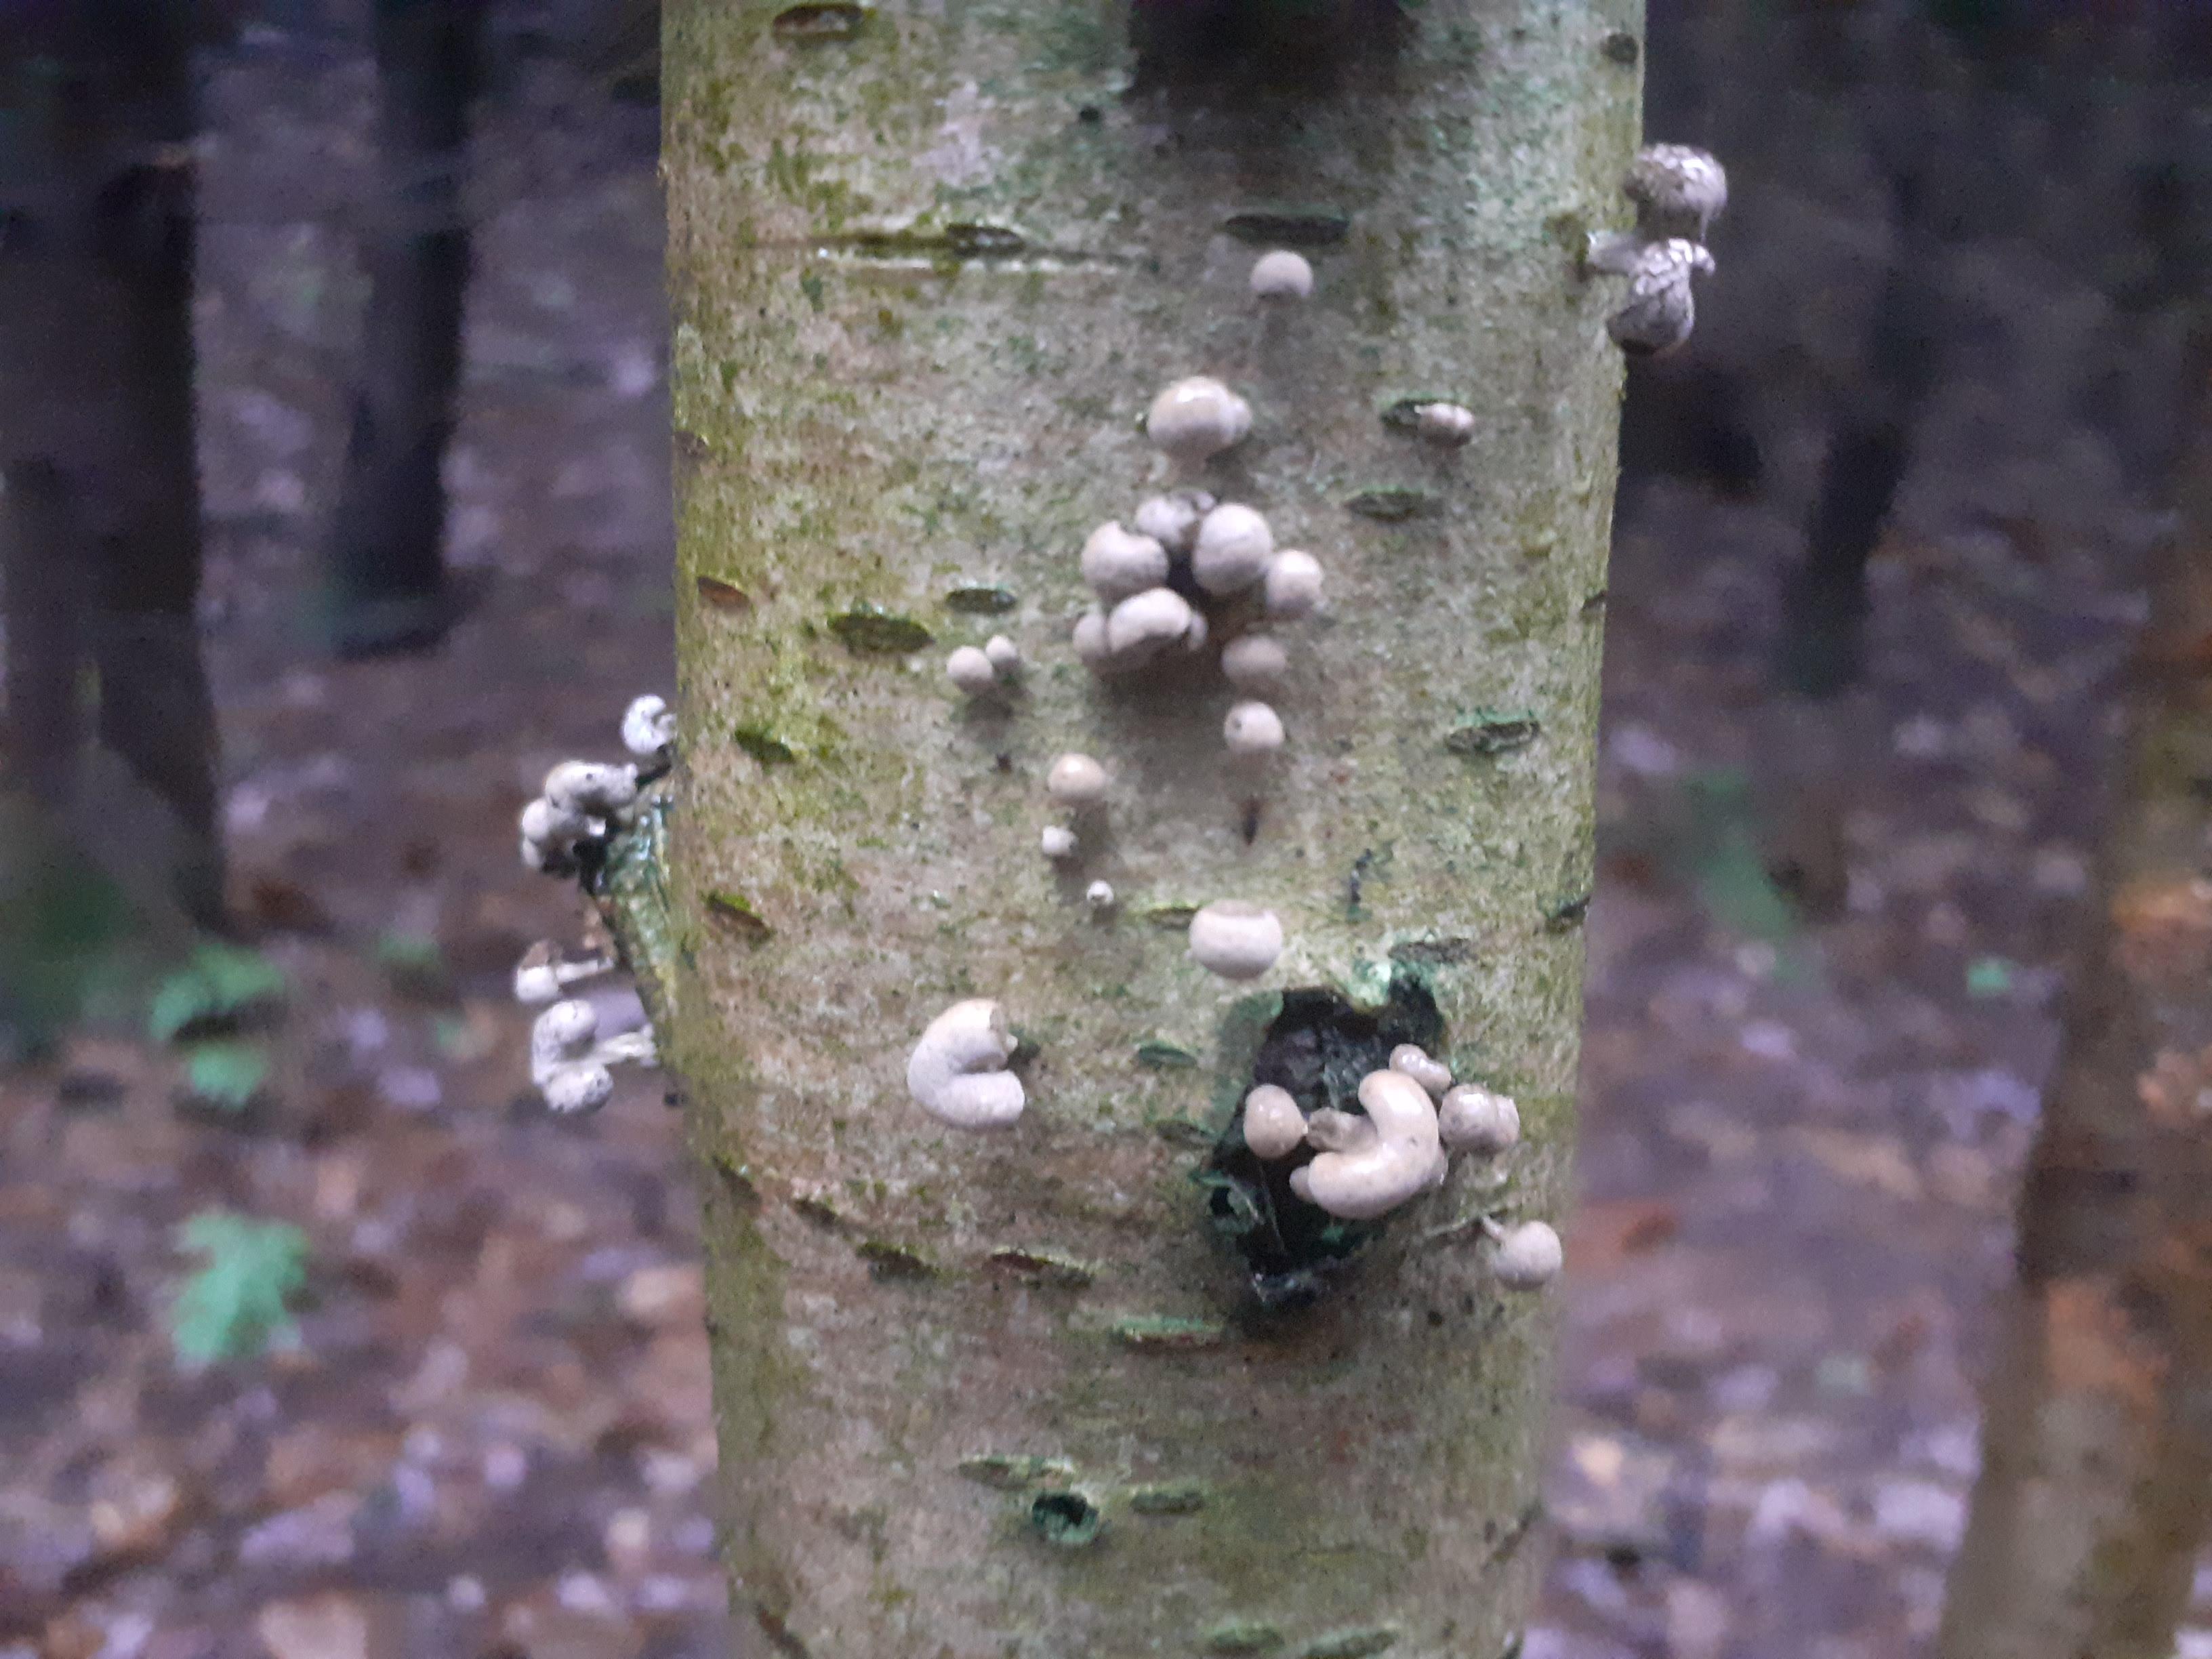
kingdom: Fungi
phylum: Basidiomycota
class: Atractiellomycetes
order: Atractiellales
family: Phleogenaceae
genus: Phleogena
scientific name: Phleogena faginea
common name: pudderkølle
